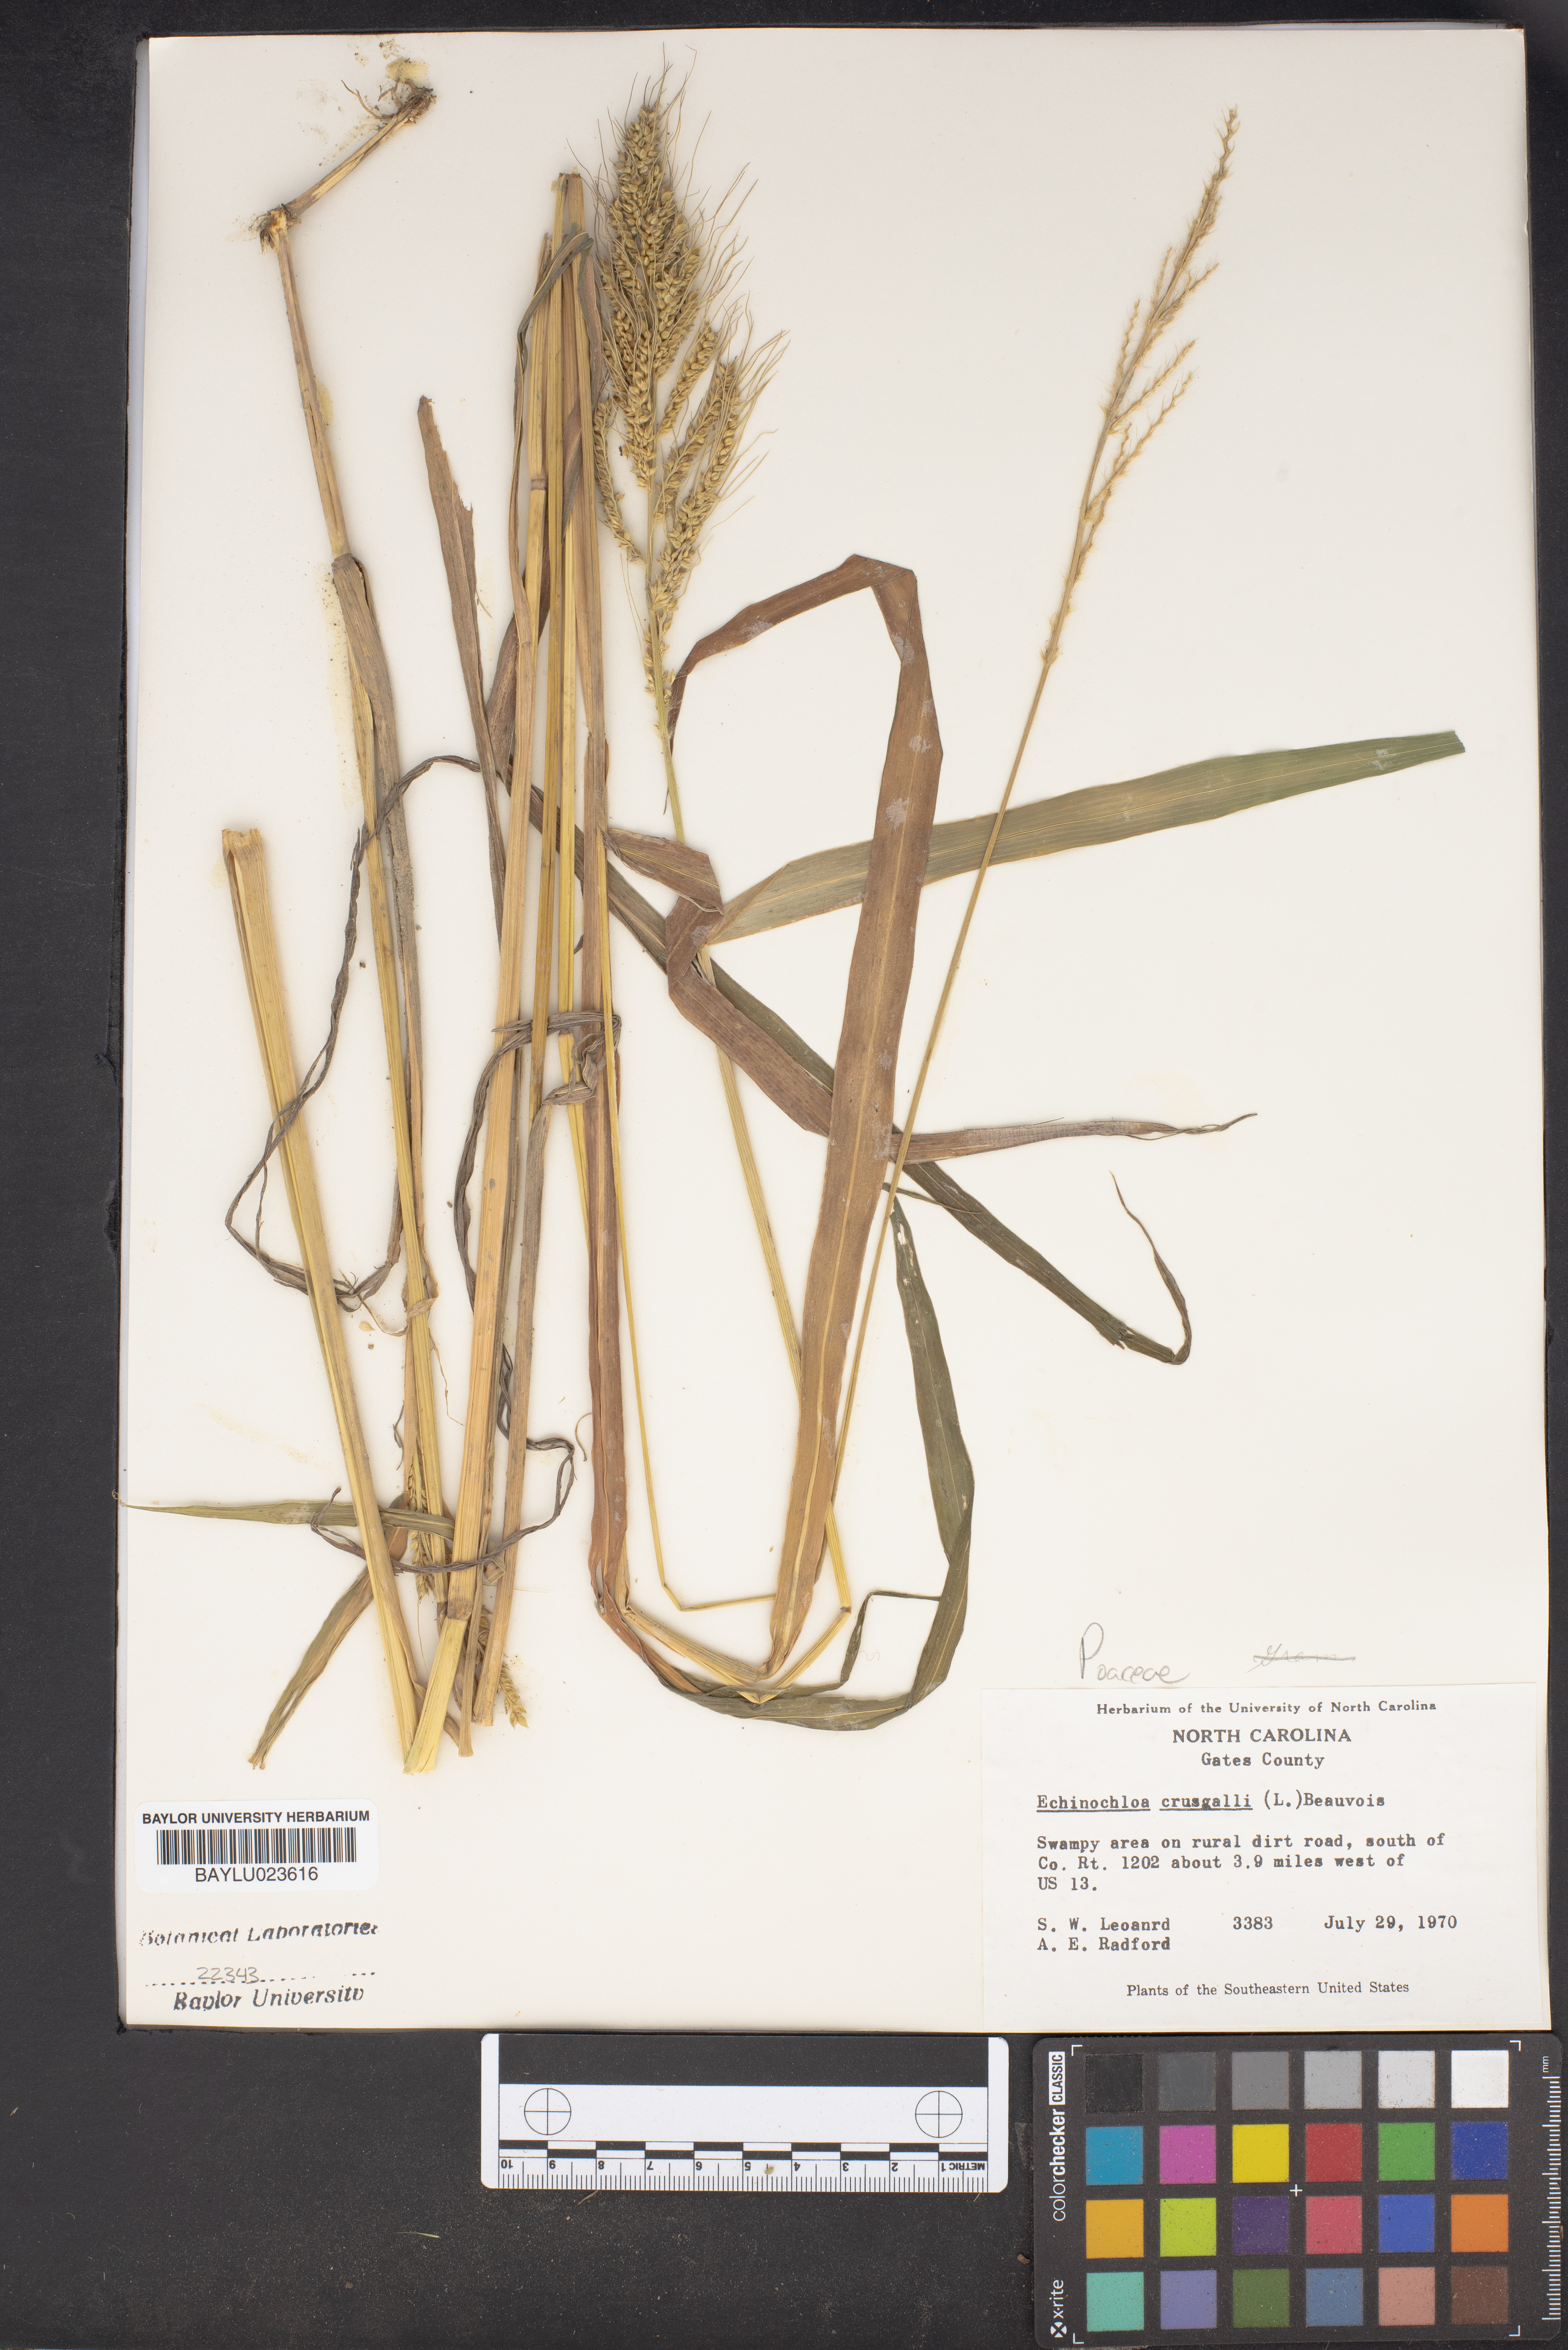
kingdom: Plantae
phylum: Tracheophyta
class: Liliopsida
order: Poales
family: Poaceae
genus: Echinochloa
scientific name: Echinochloa
